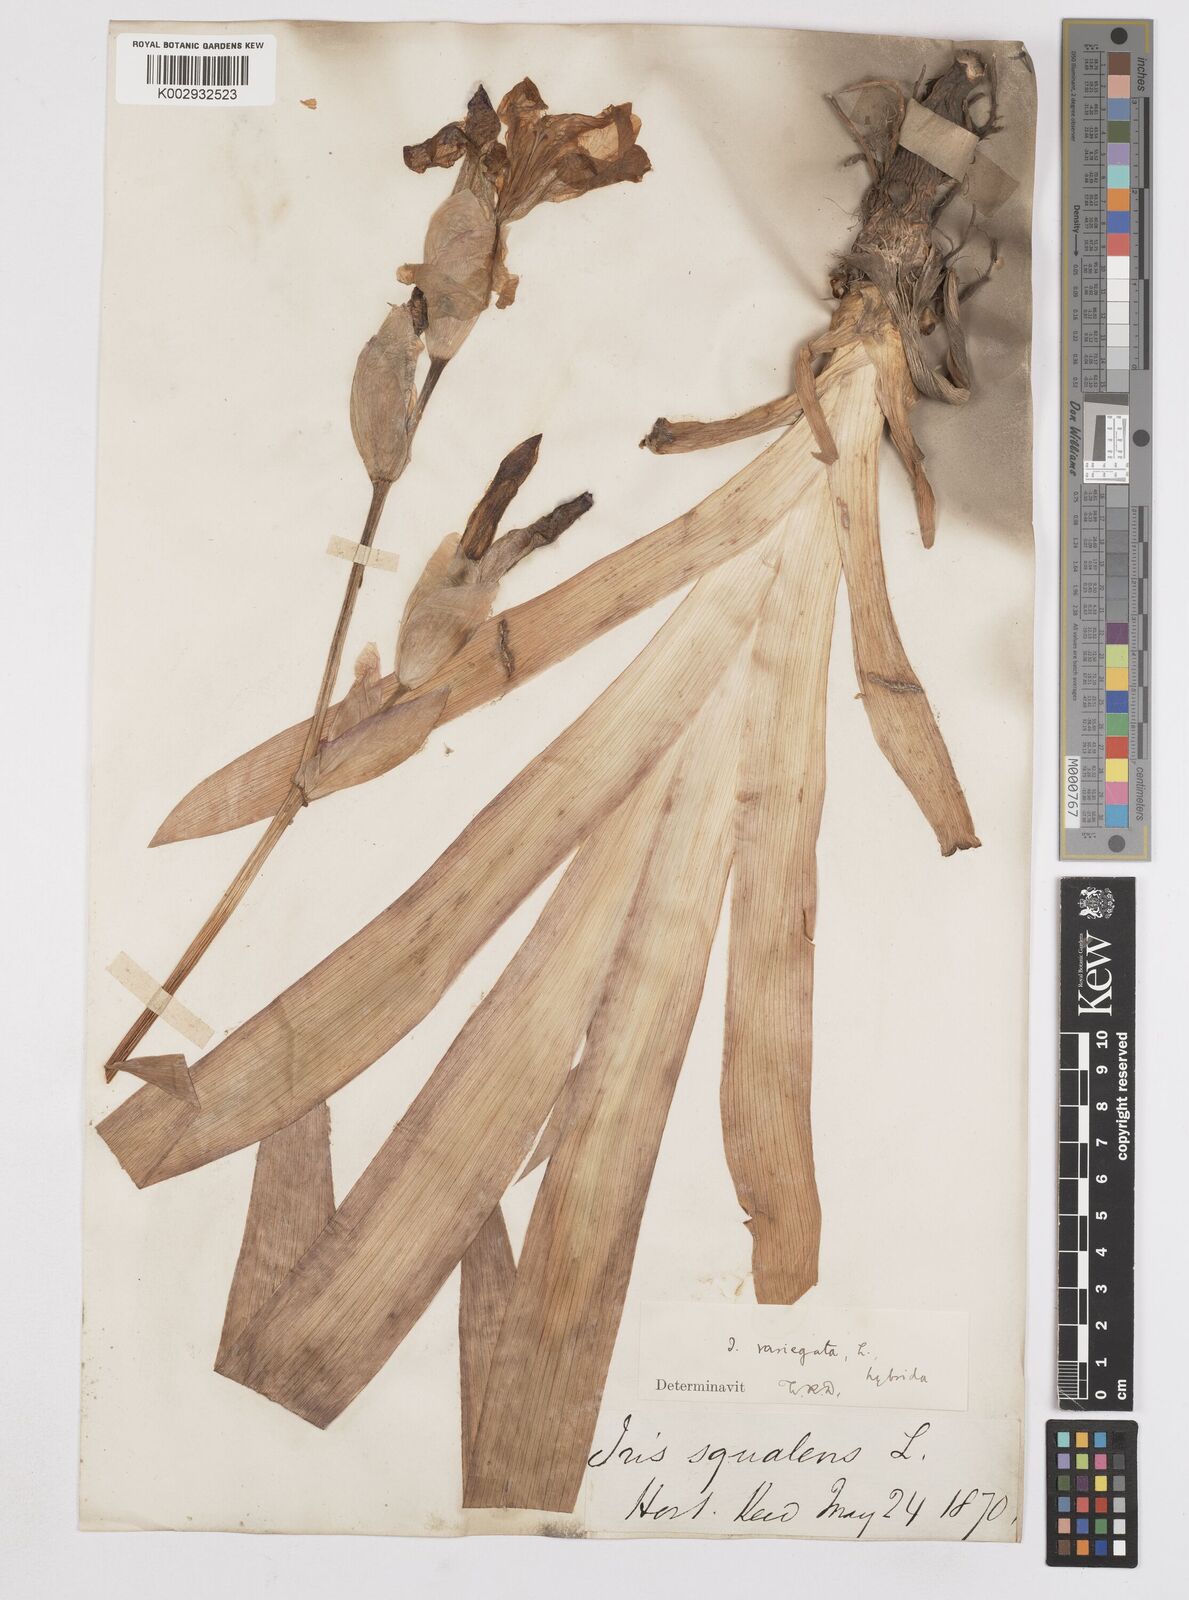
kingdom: Plantae
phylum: Tracheophyta
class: Liliopsida
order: Asparagales
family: Iridaceae
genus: Iris
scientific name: Iris
